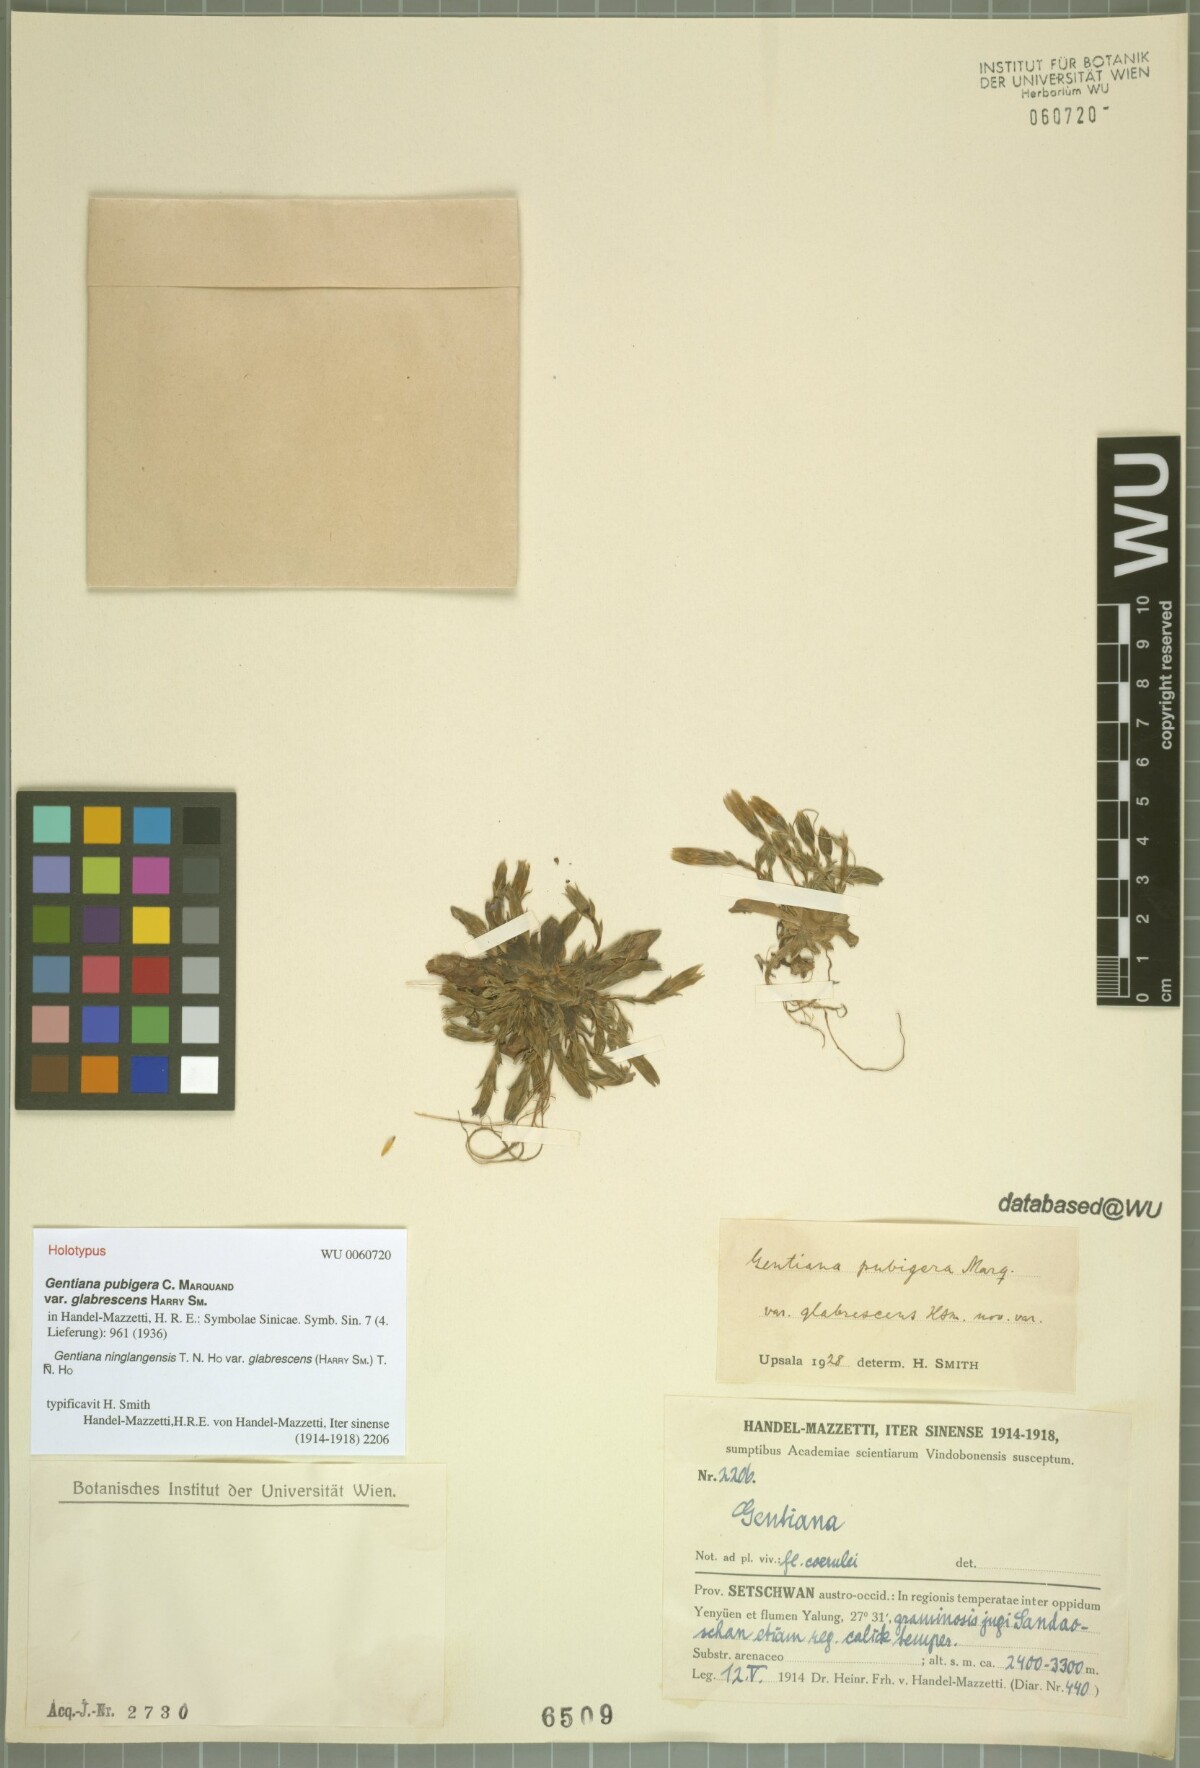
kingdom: Plantae
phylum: Tracheophyta
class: Magnoliopsida
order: Gentianales
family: Gentianaceae
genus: Gentiana
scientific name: Gentiana pubigera
